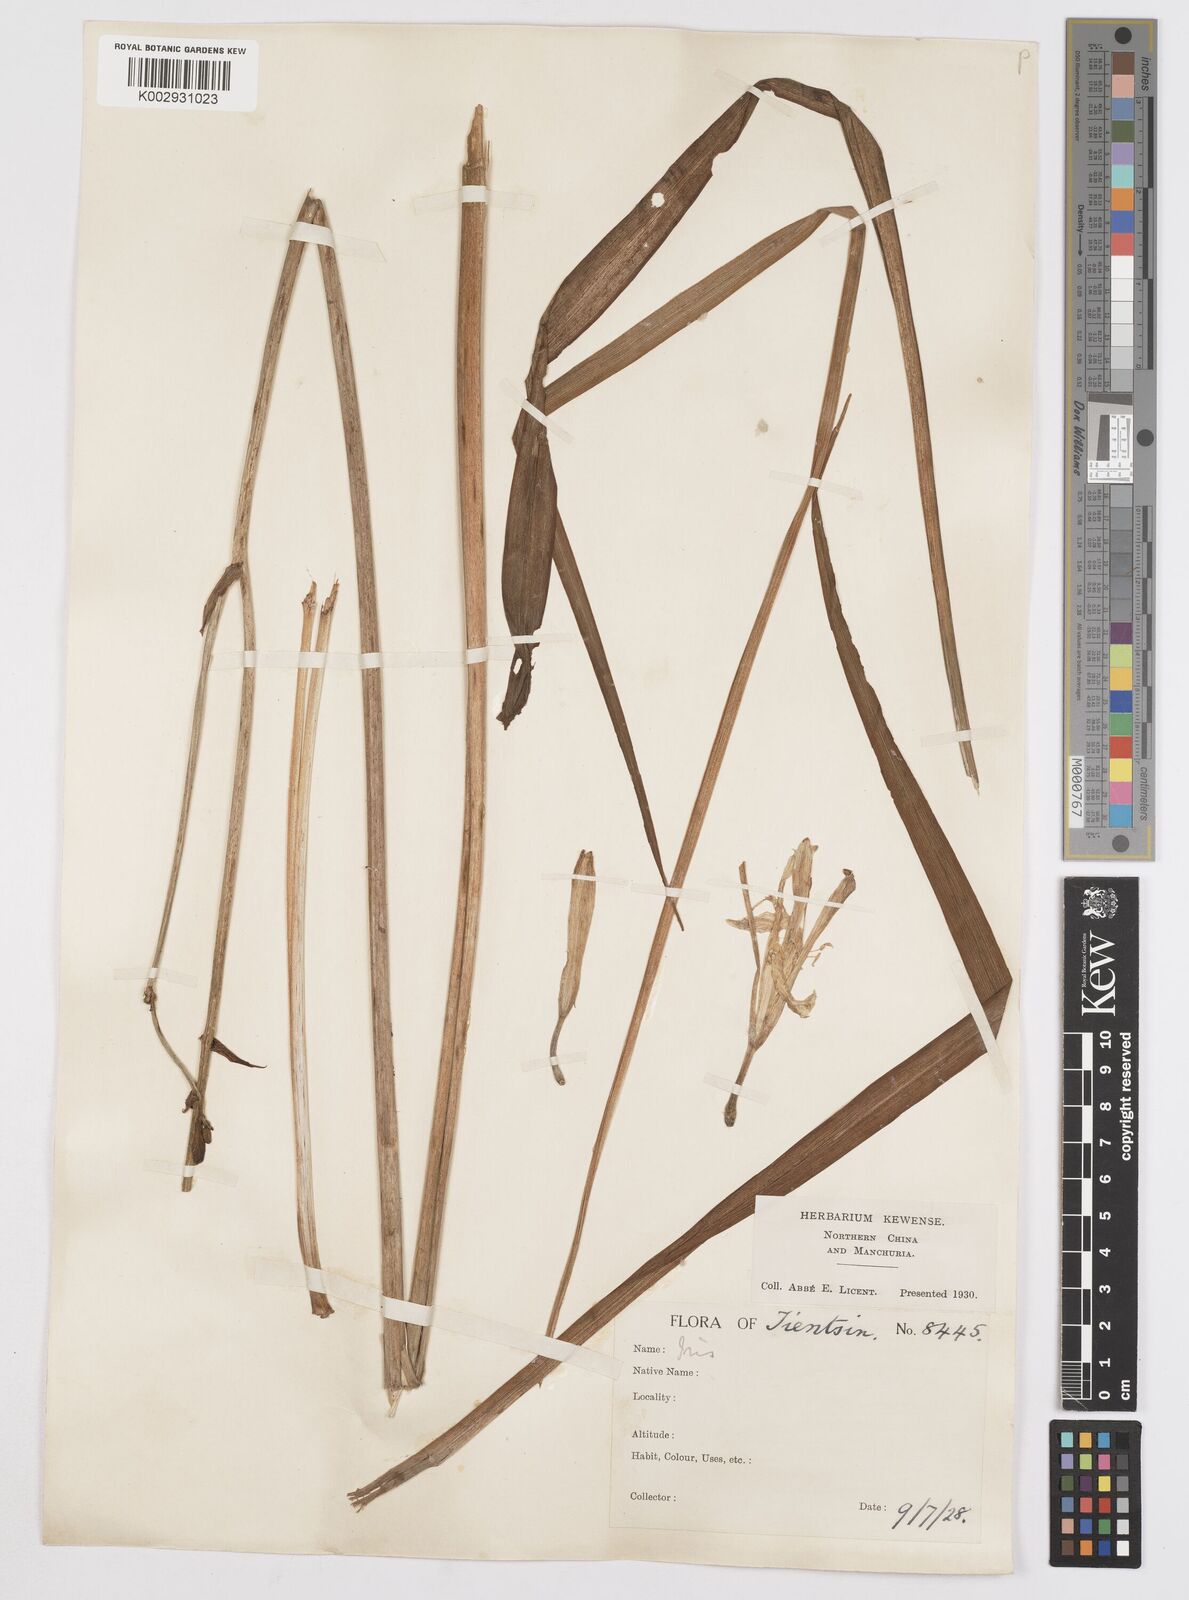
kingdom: Plantae
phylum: Tracheophyta
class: Liliopsida
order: Asparagales
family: Iridaceae
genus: Iris
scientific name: Iris
